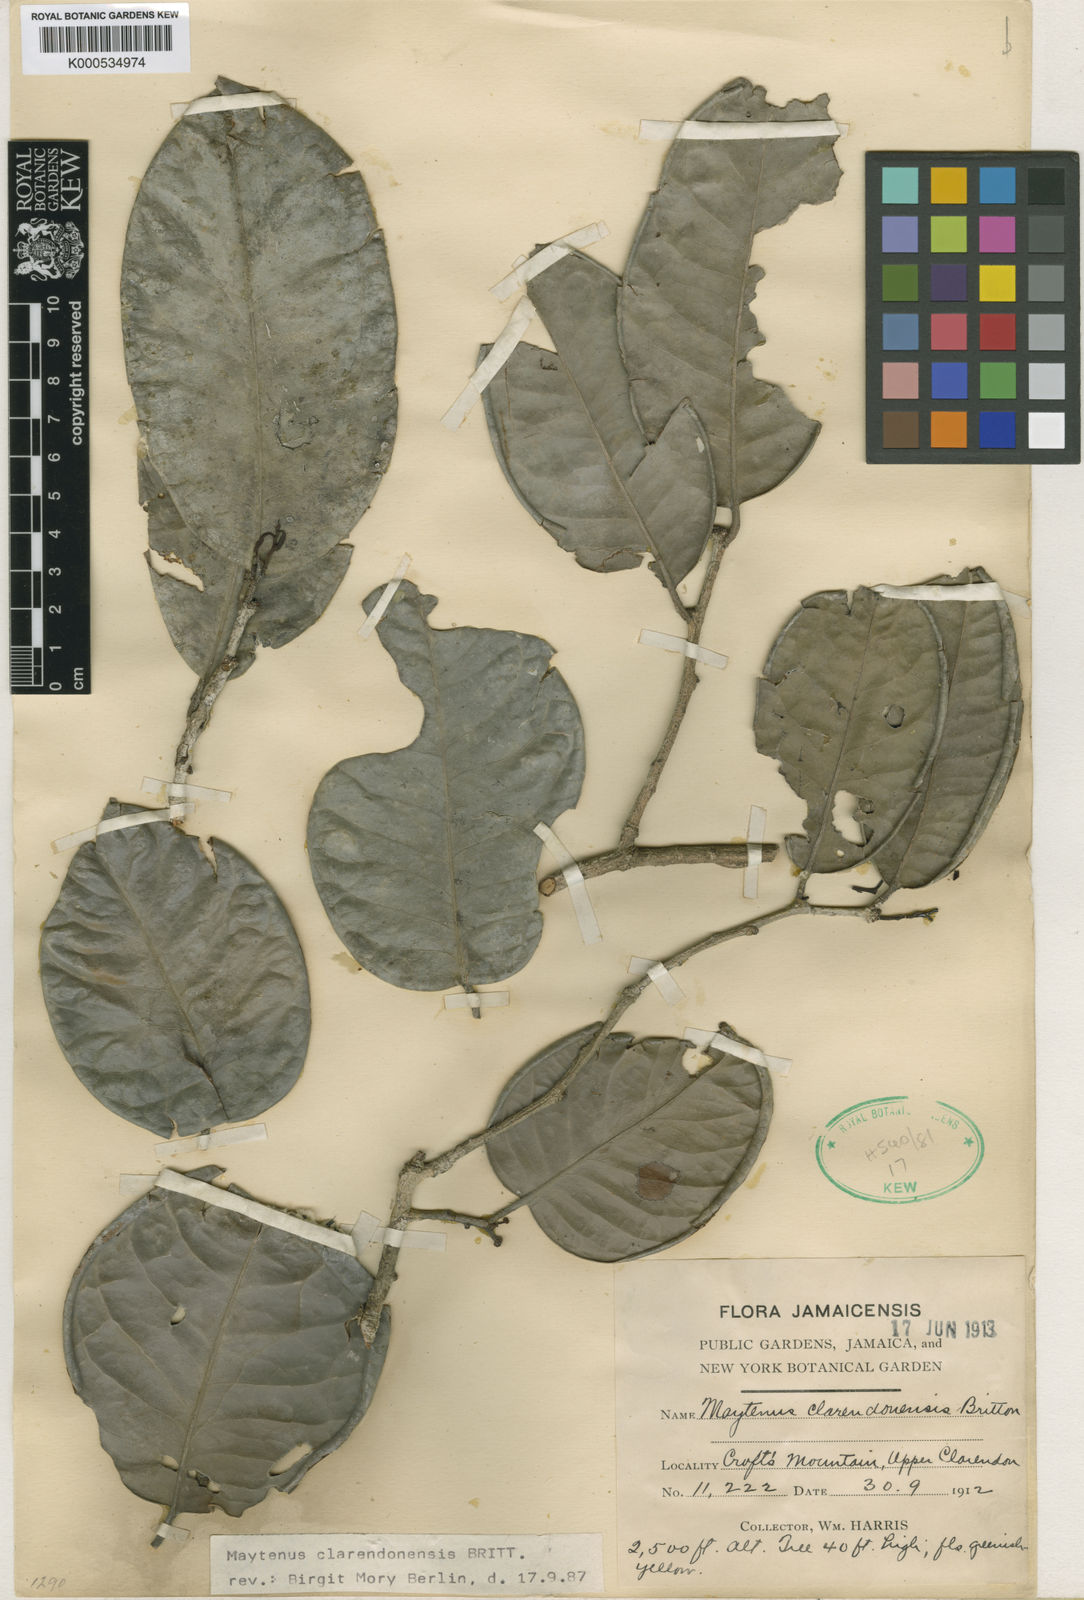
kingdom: Plantae
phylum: Tracheophyta
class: Magnoliopsida
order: Celastrales
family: Celastraceae
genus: Monteverdia
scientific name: Monteverdia clarendonensis
